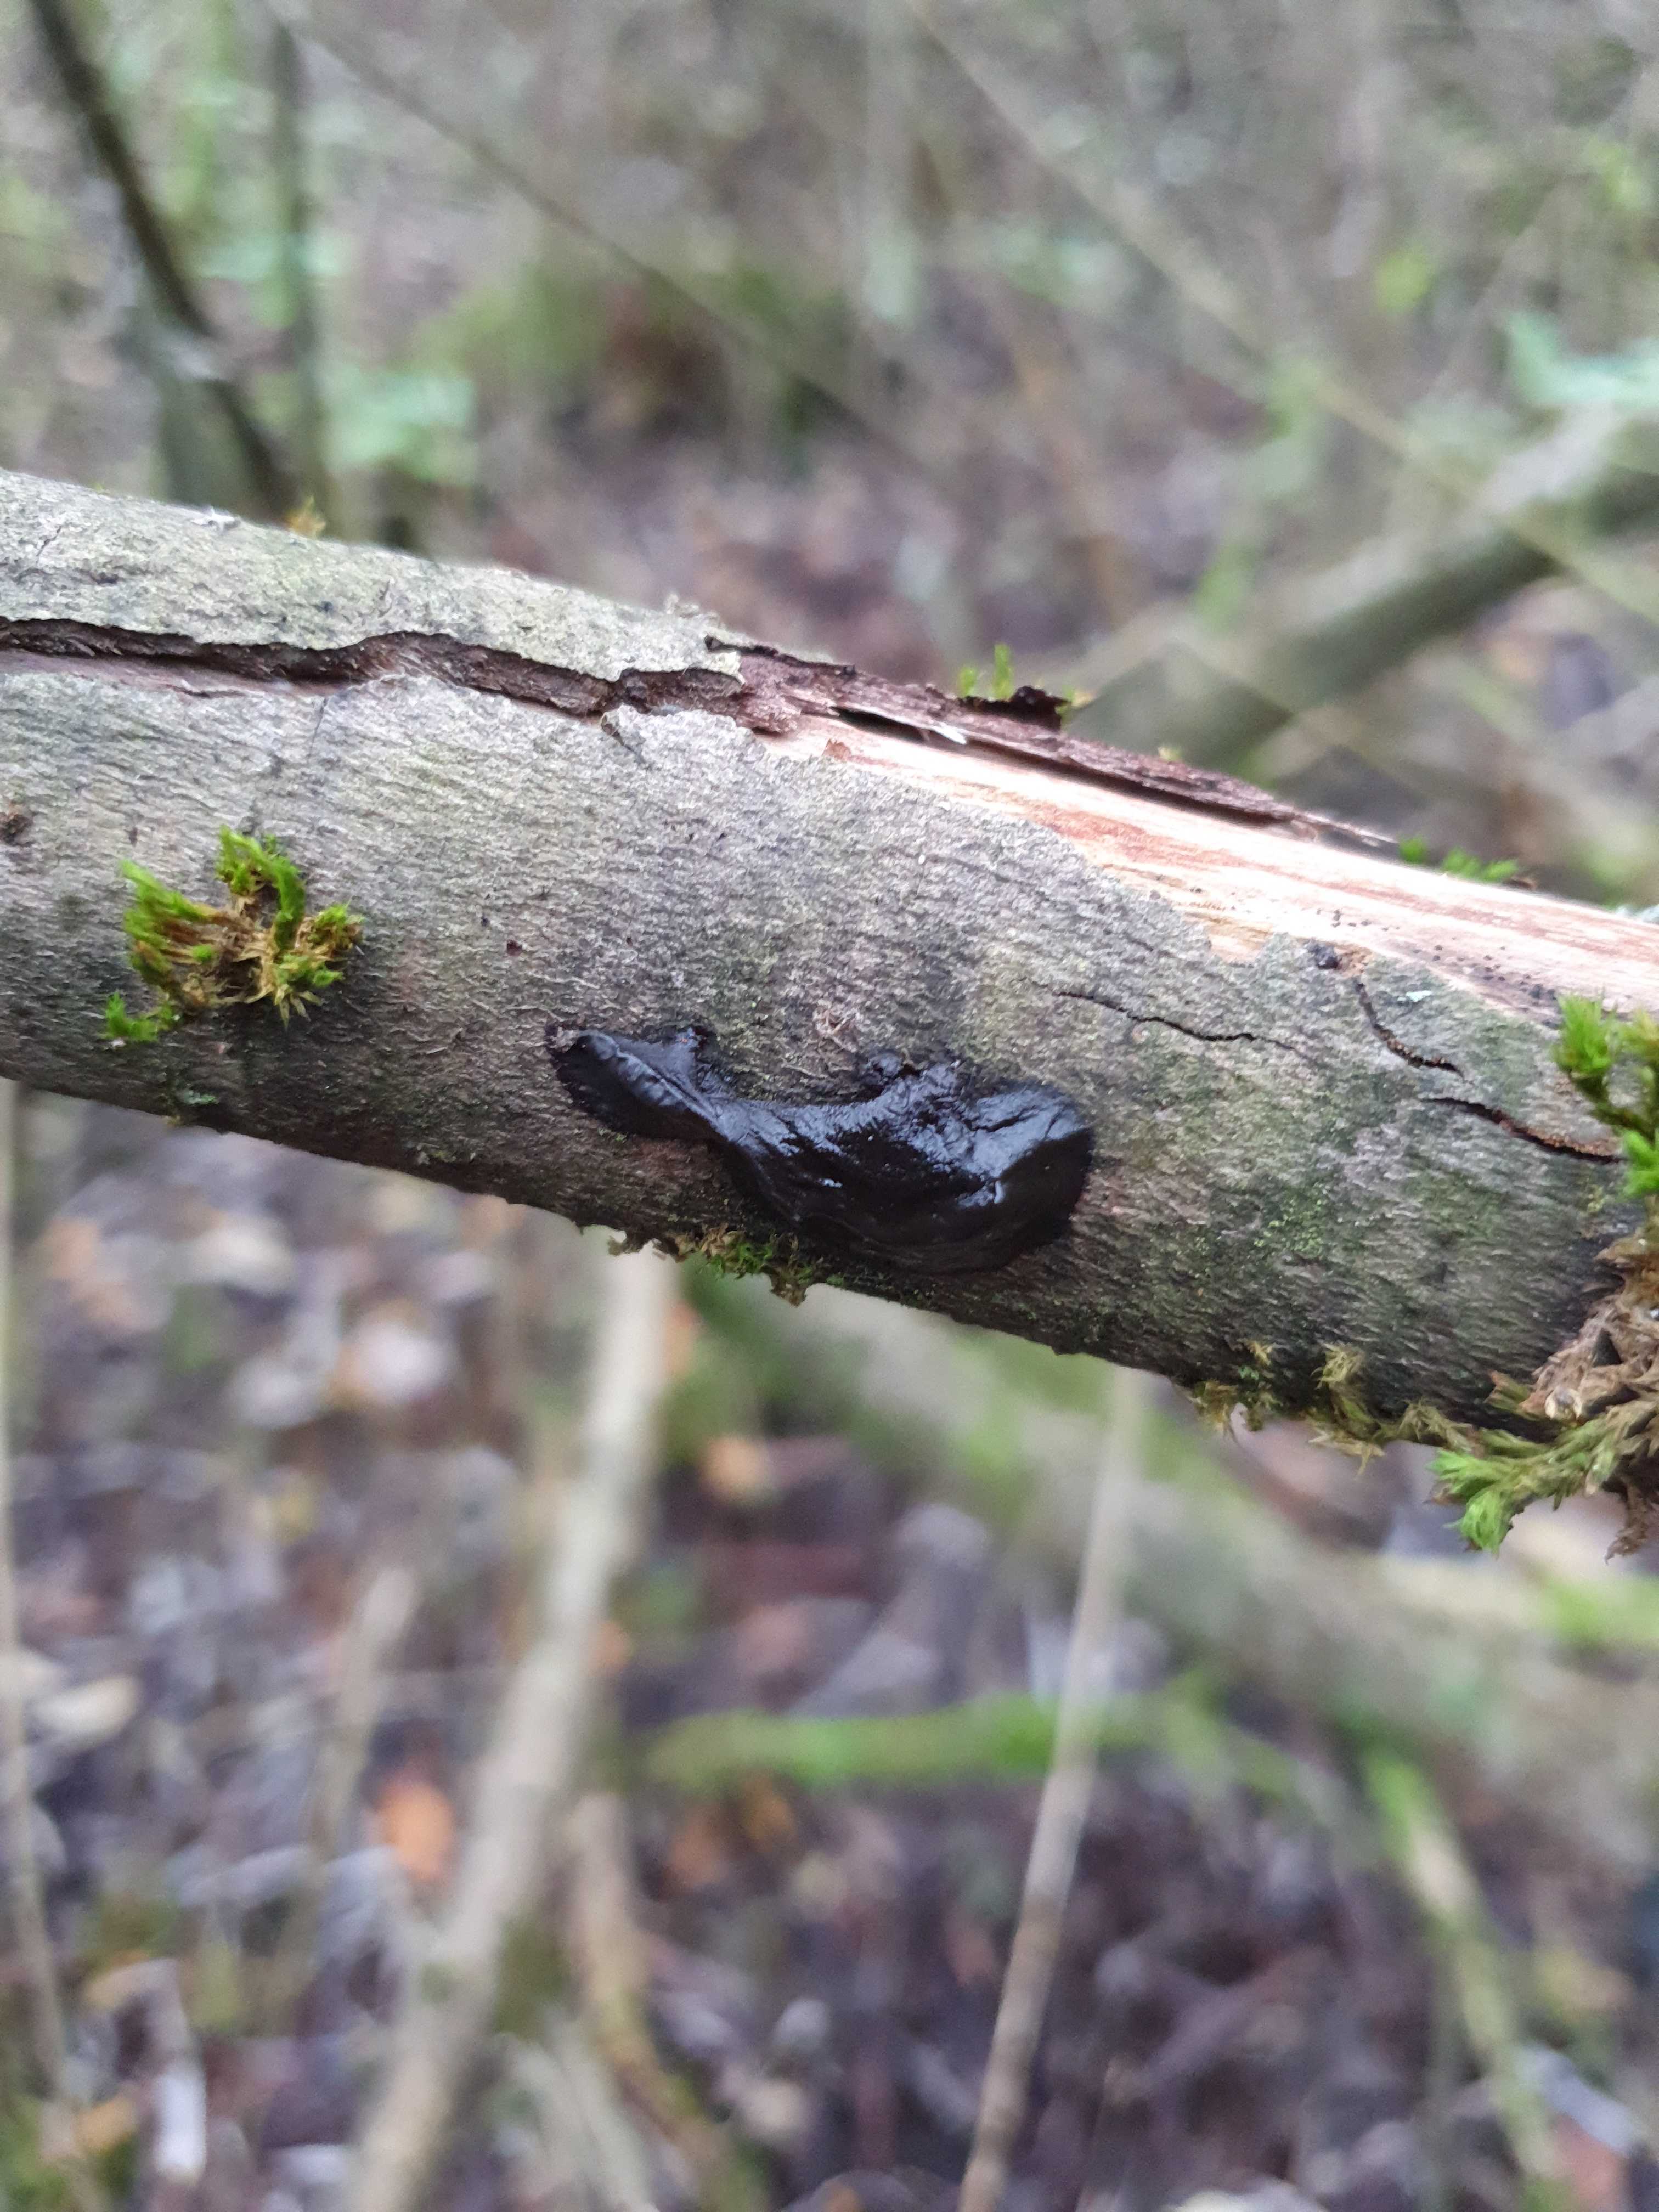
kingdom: Fungi
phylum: Basidiomycota
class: Agaricomycetes
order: Auriculariales
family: Auriculariaceae
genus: Exidia
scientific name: Exidia recisa
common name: pile-bævretop
